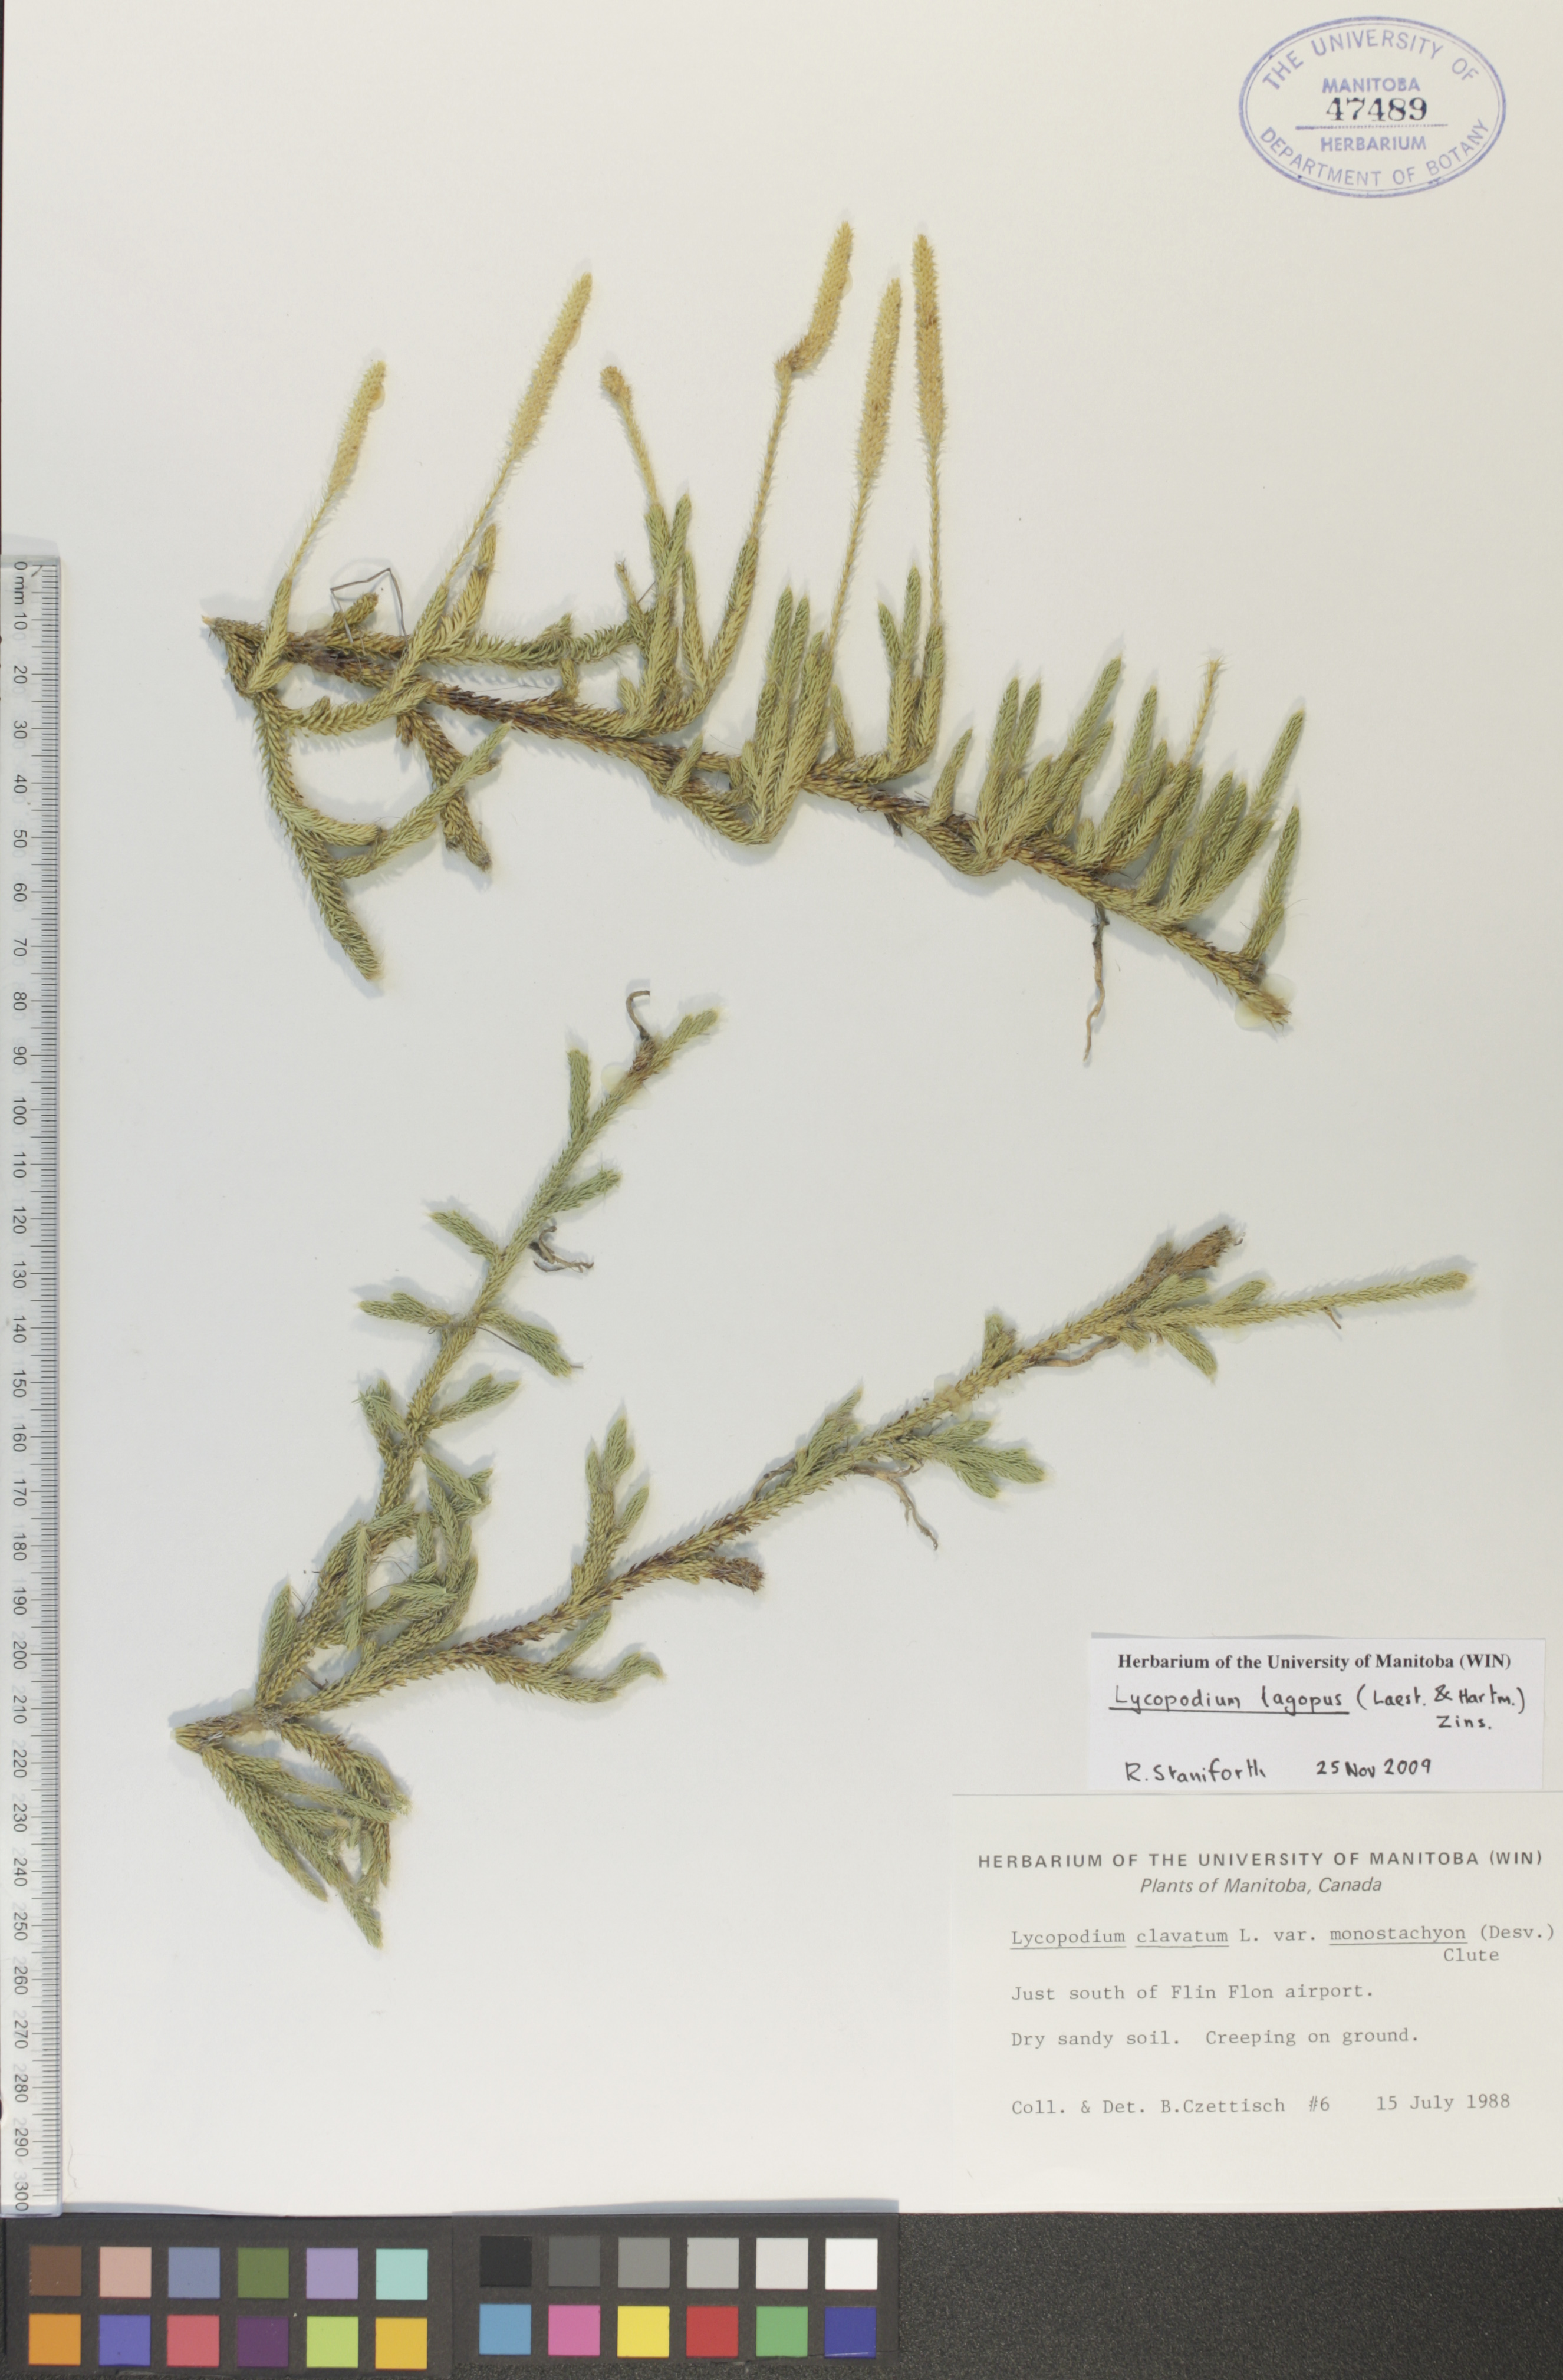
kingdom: Plantae
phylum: Tracheophyta
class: Lycopodiopsida
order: Lycopodiales
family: Lycopodiaceae
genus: Lycopodium
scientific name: Lycopodium lagopus
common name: One-cone clubmoss
